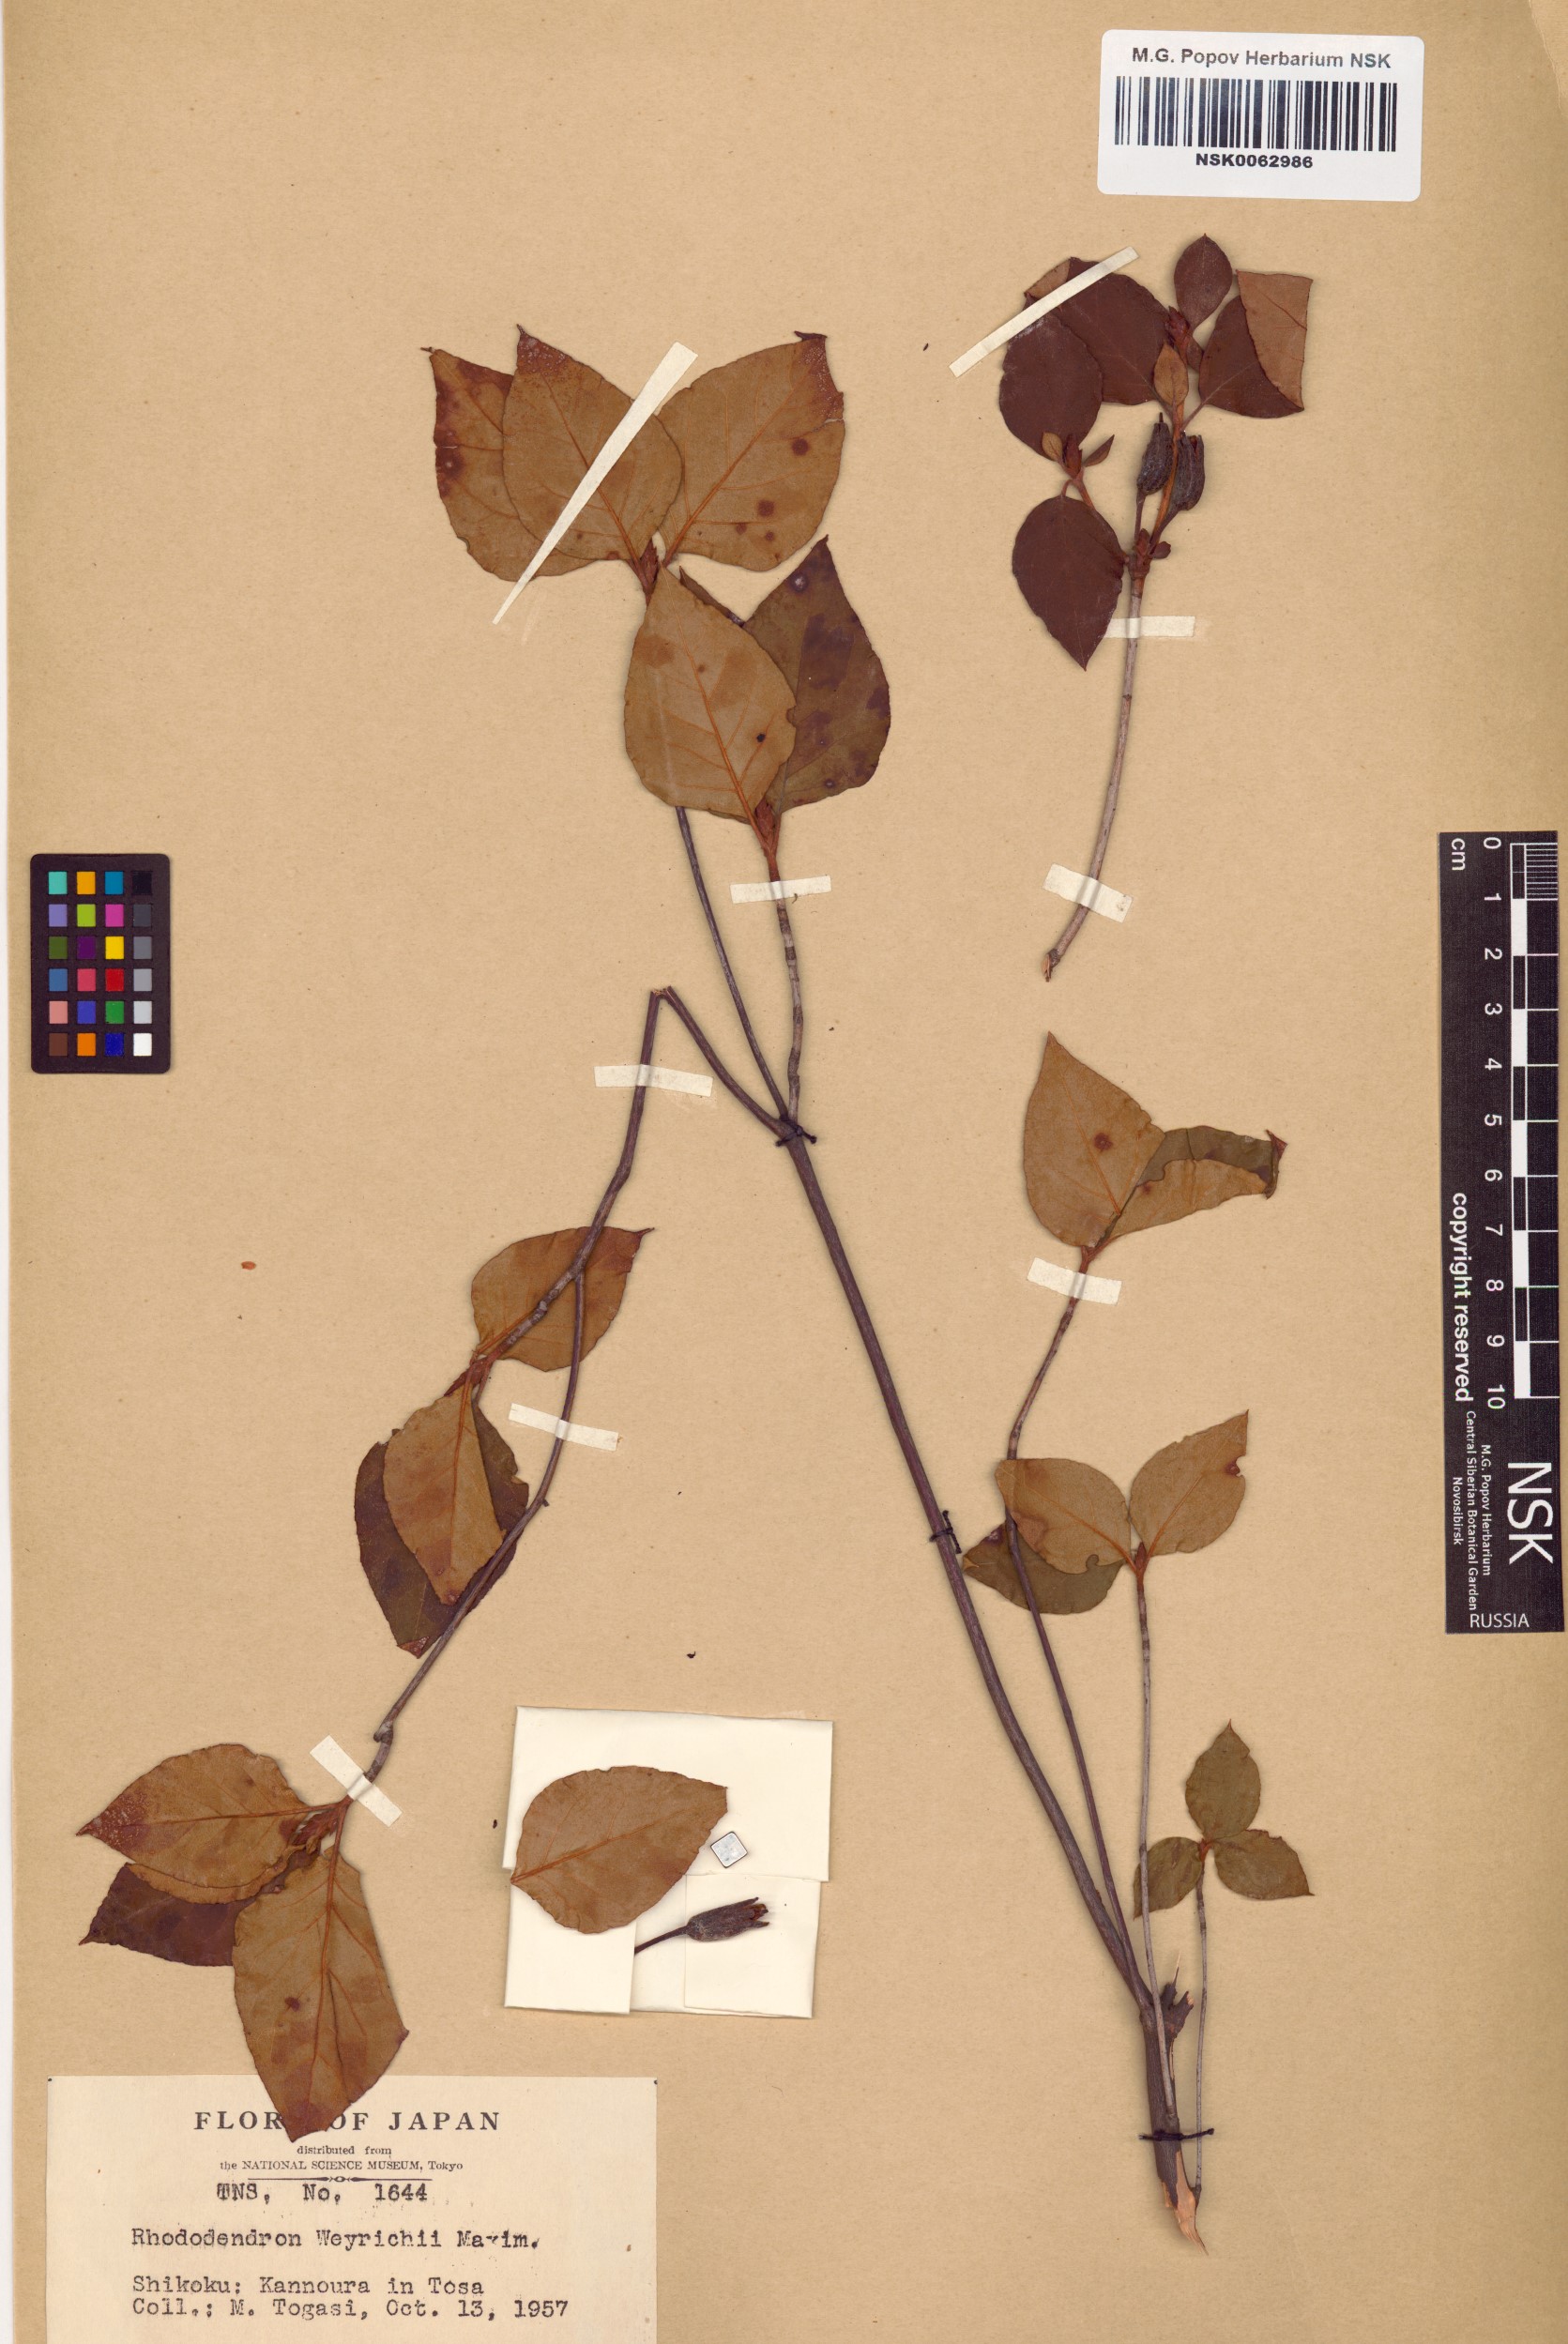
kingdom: Plantae
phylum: Tracheophyta
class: Magnoliopsida
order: Ericales
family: Ericaceae
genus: Rhododendron
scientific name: Rhododendron weyrichii
